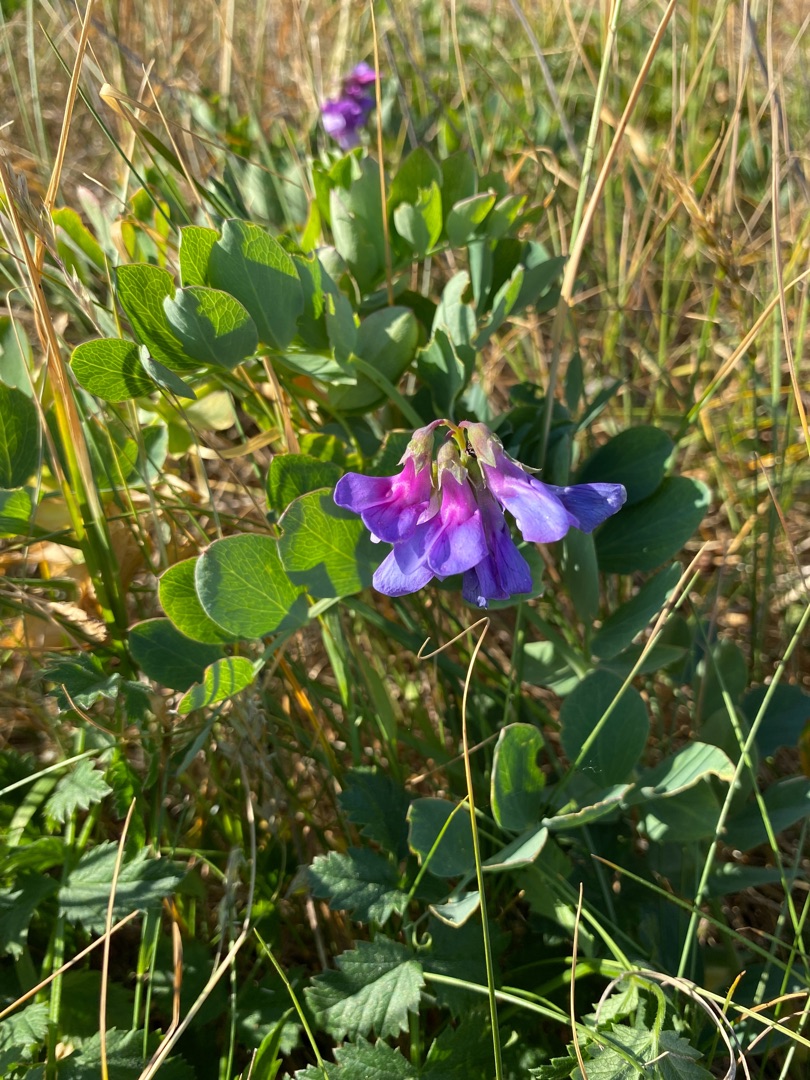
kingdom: Plantae
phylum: Tracheophyta
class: Magnoliopsida
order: Fabales
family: Fabaceae
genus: Lathyrus
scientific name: Lathyrus japonicus
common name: Strand-fladbælg
